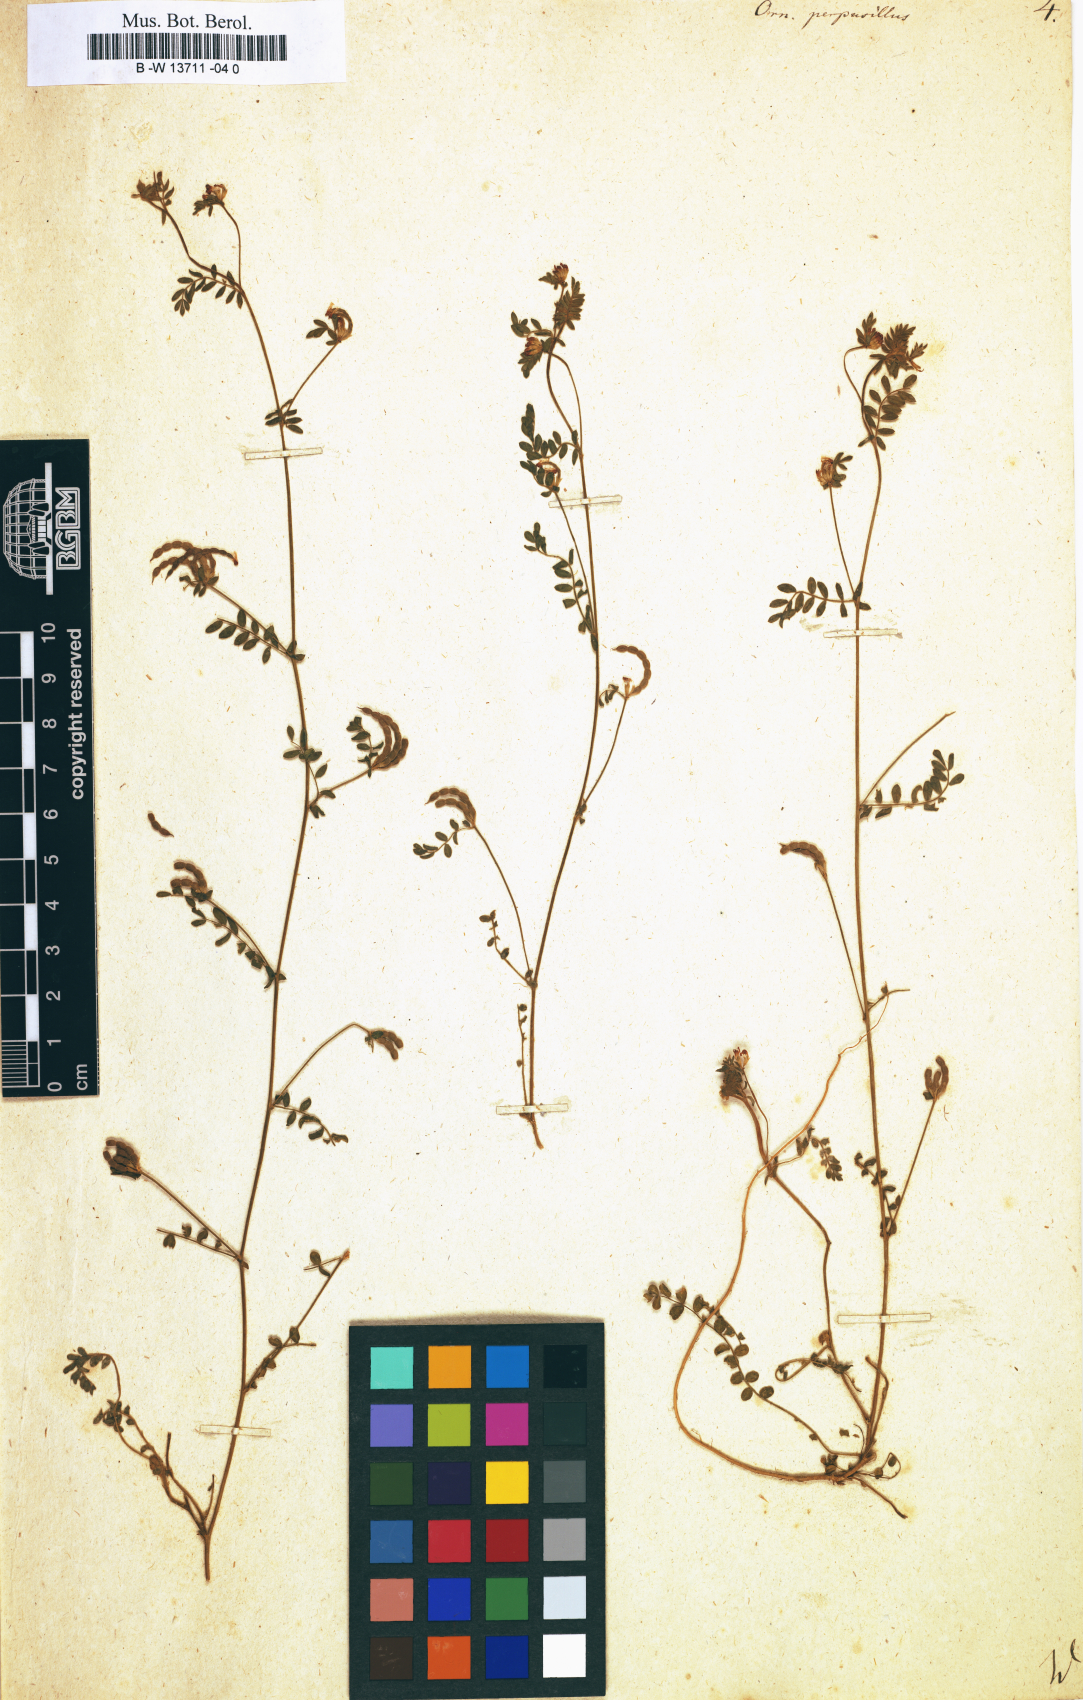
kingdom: Plantae
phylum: Tracheophyta
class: Magnoliopsida
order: Fabales
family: Fabaceae
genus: Ornithopus
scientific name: Ornithopus perpusillus
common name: Bird's-foot
